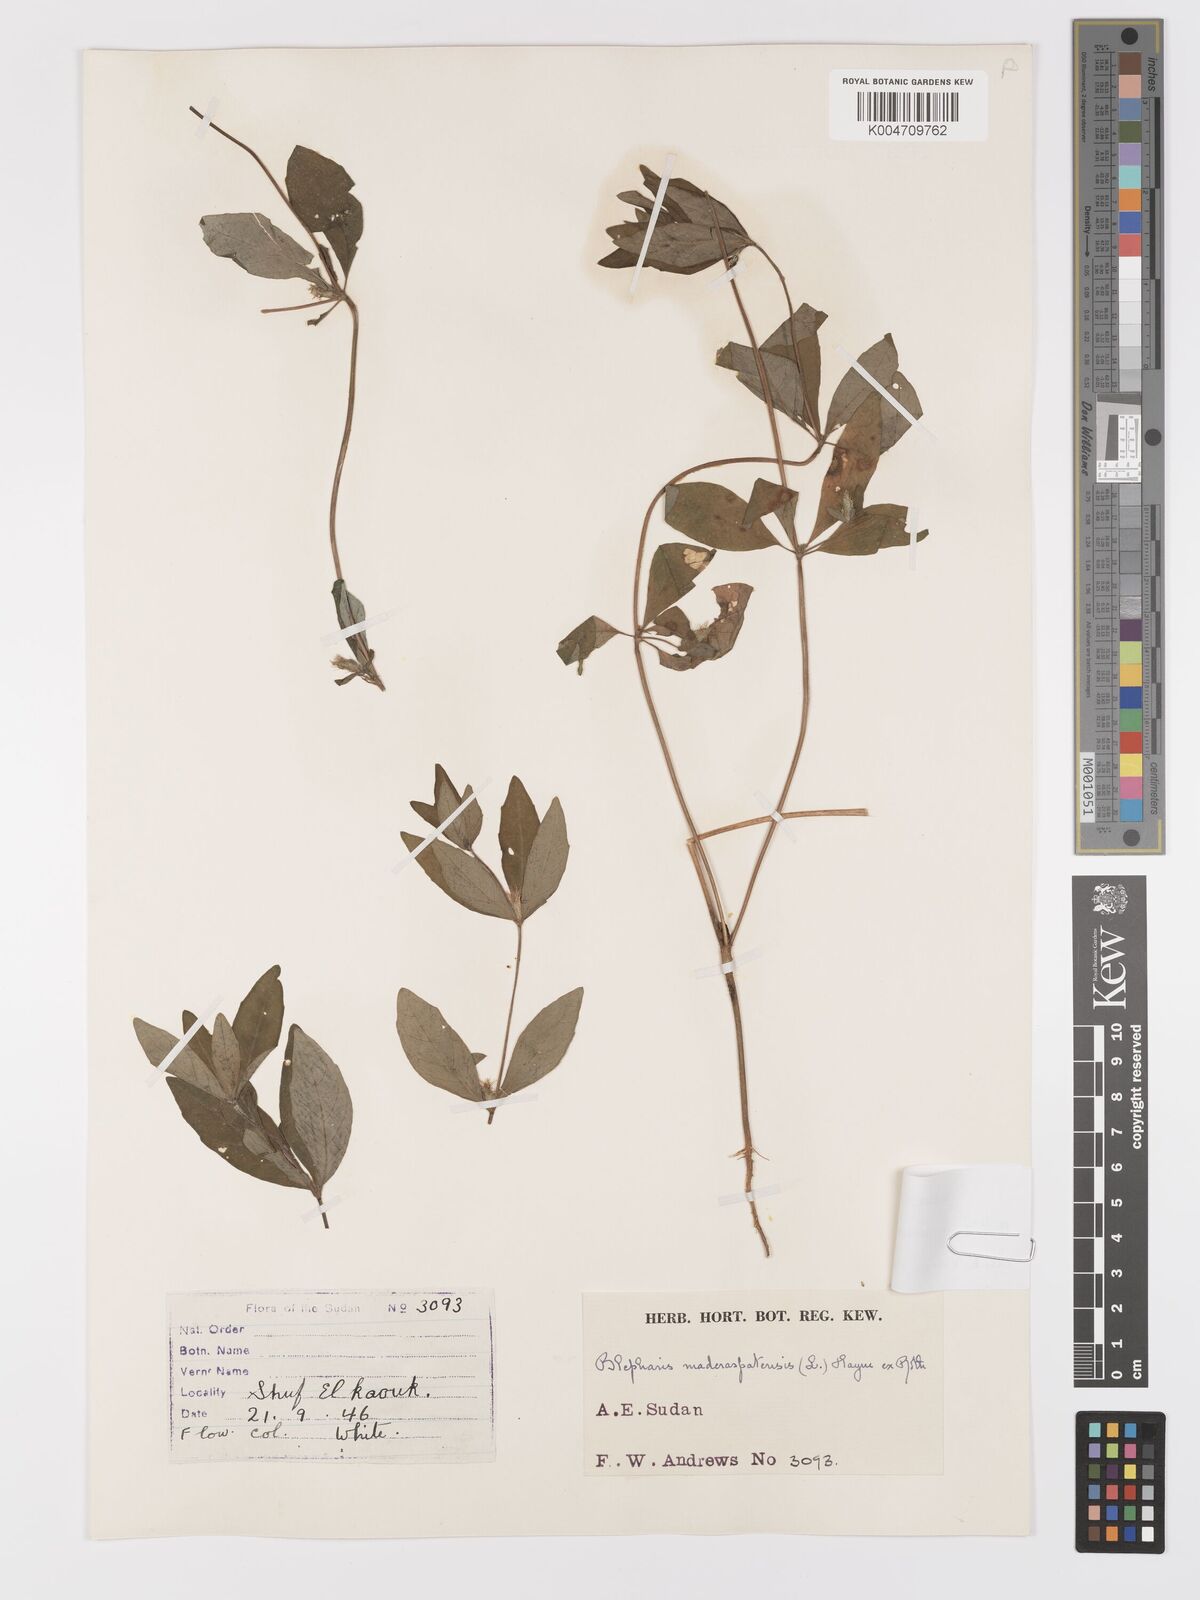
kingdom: Plantae
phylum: Tracheophyta
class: Magnoliopsida
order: Lamiales
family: Acanthaceae
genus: Blepharis
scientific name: Blepharis maderaspatensis
